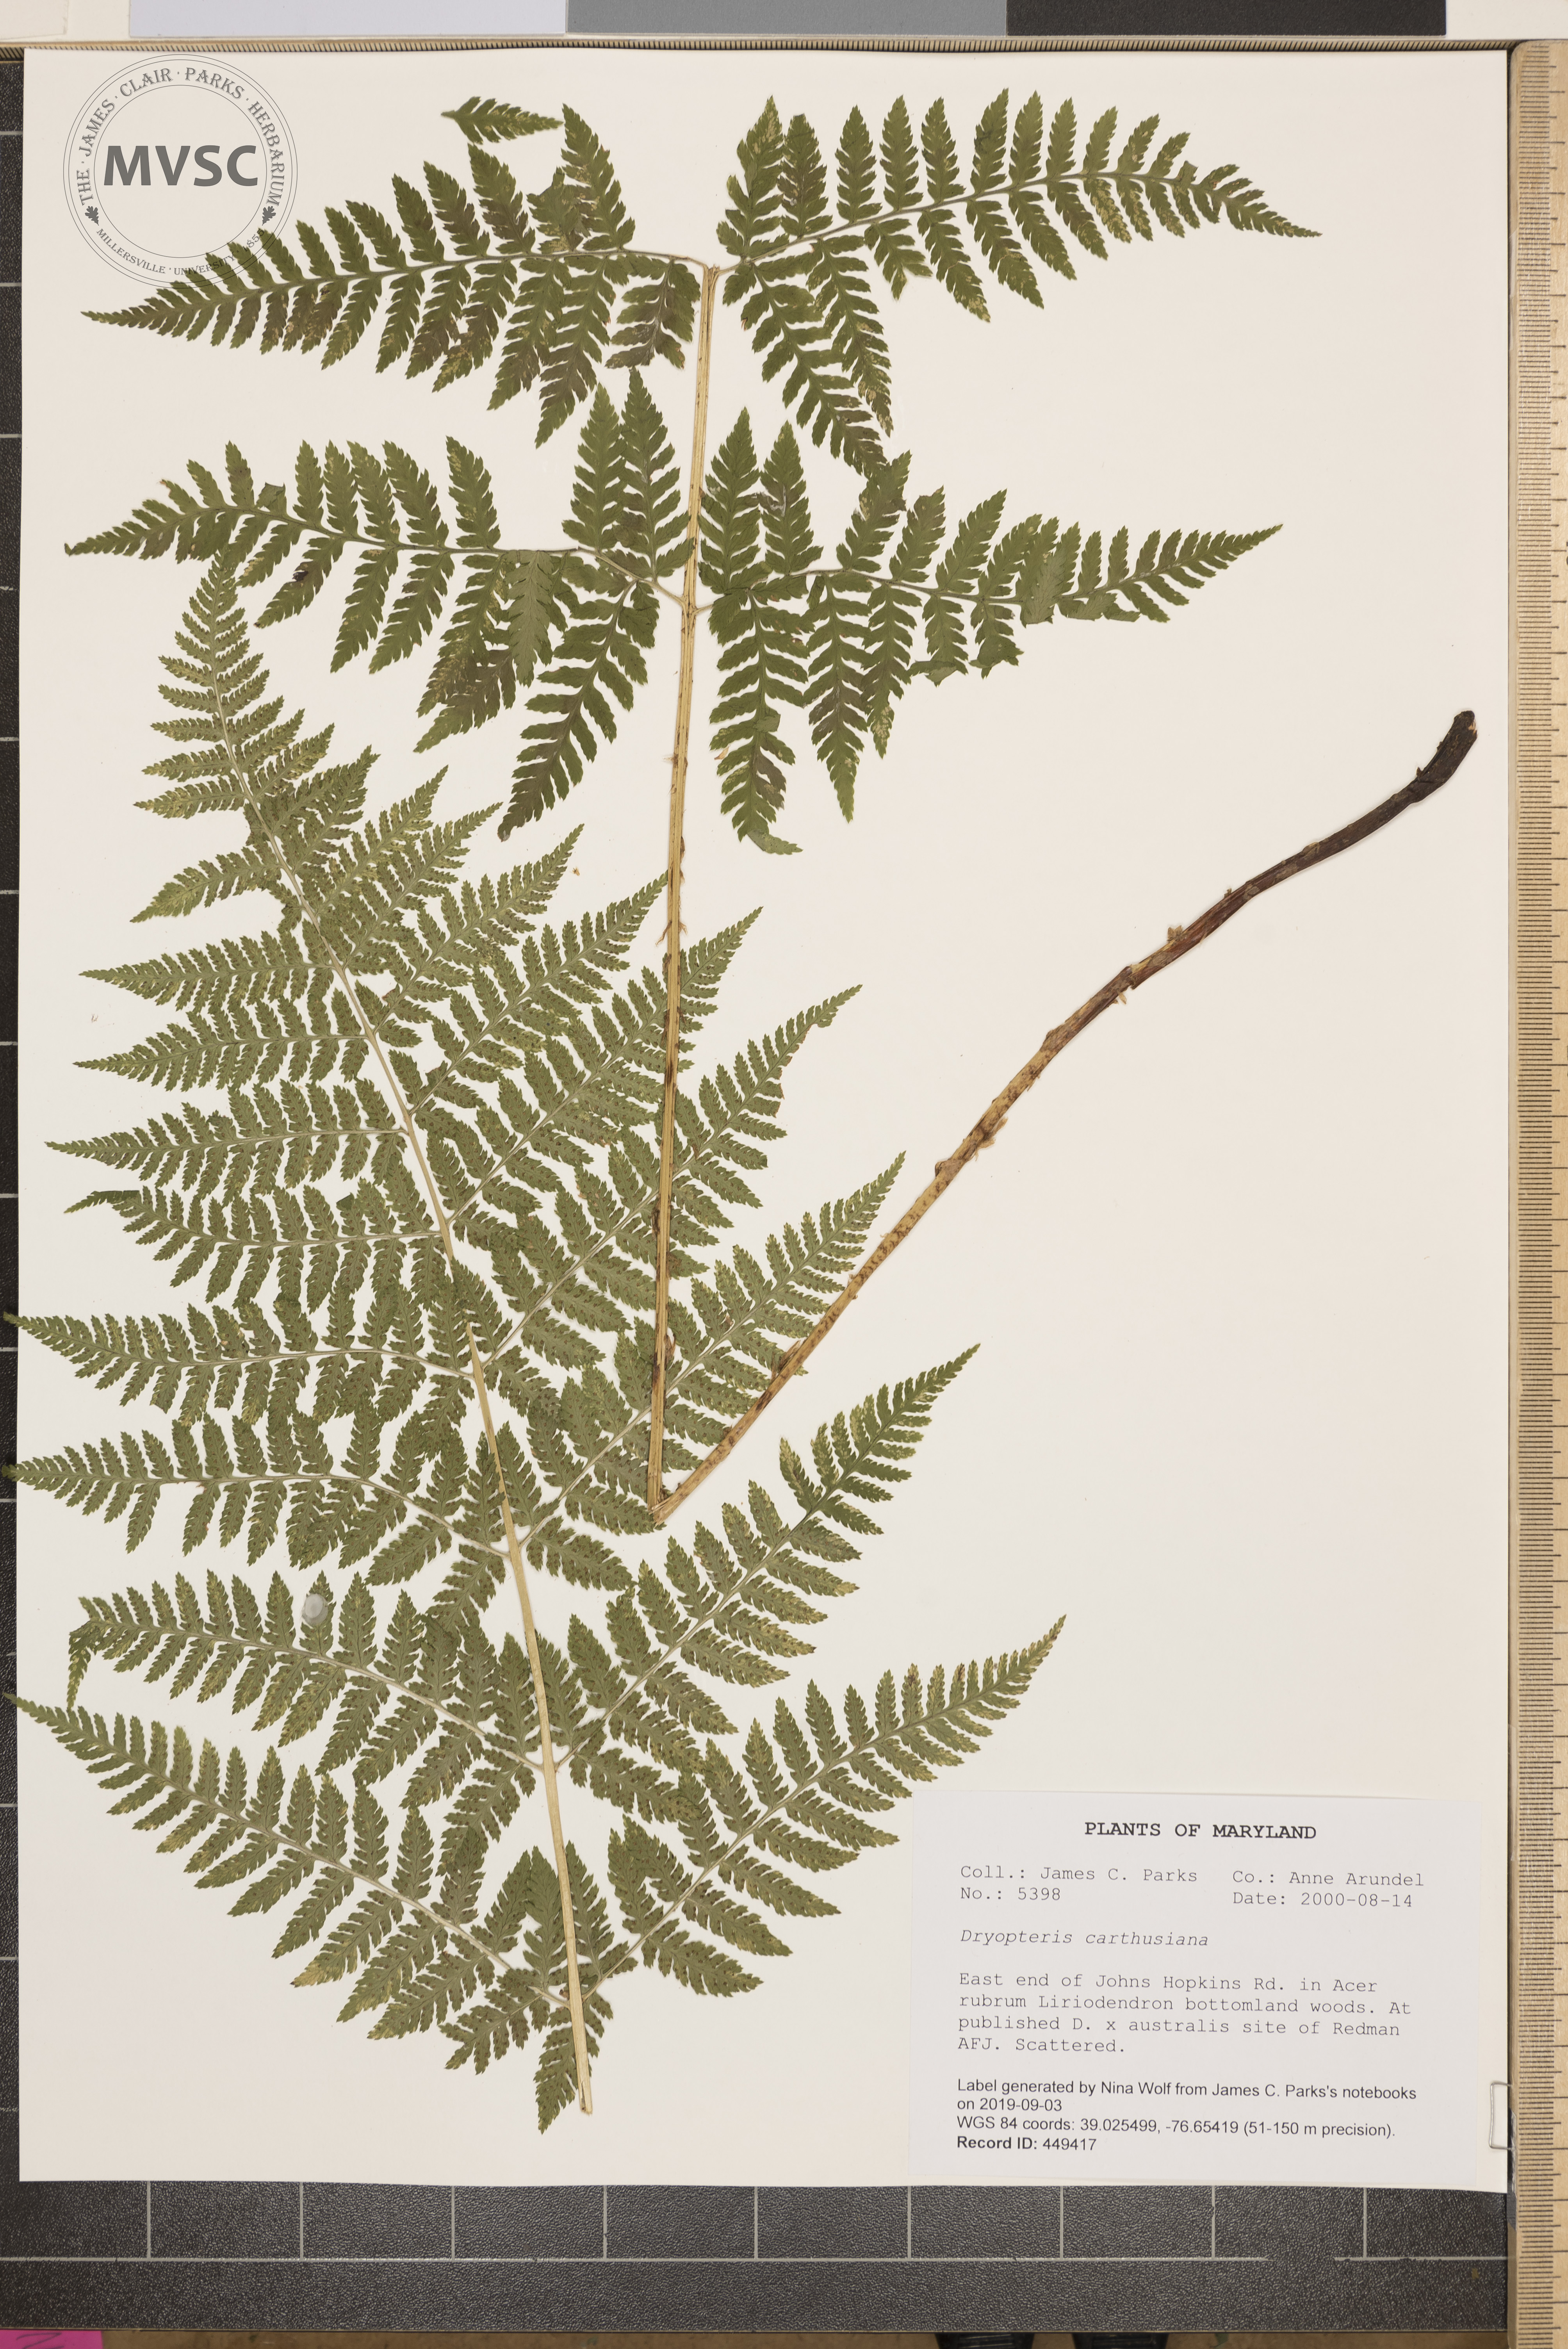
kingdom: Plantae
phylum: Tracheophyta
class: Polypodiopsida
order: Polypodiales
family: Dryopteridaceae
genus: Dryopteris
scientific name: Dryopteris carthusiana
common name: Narrow buckler-fern
